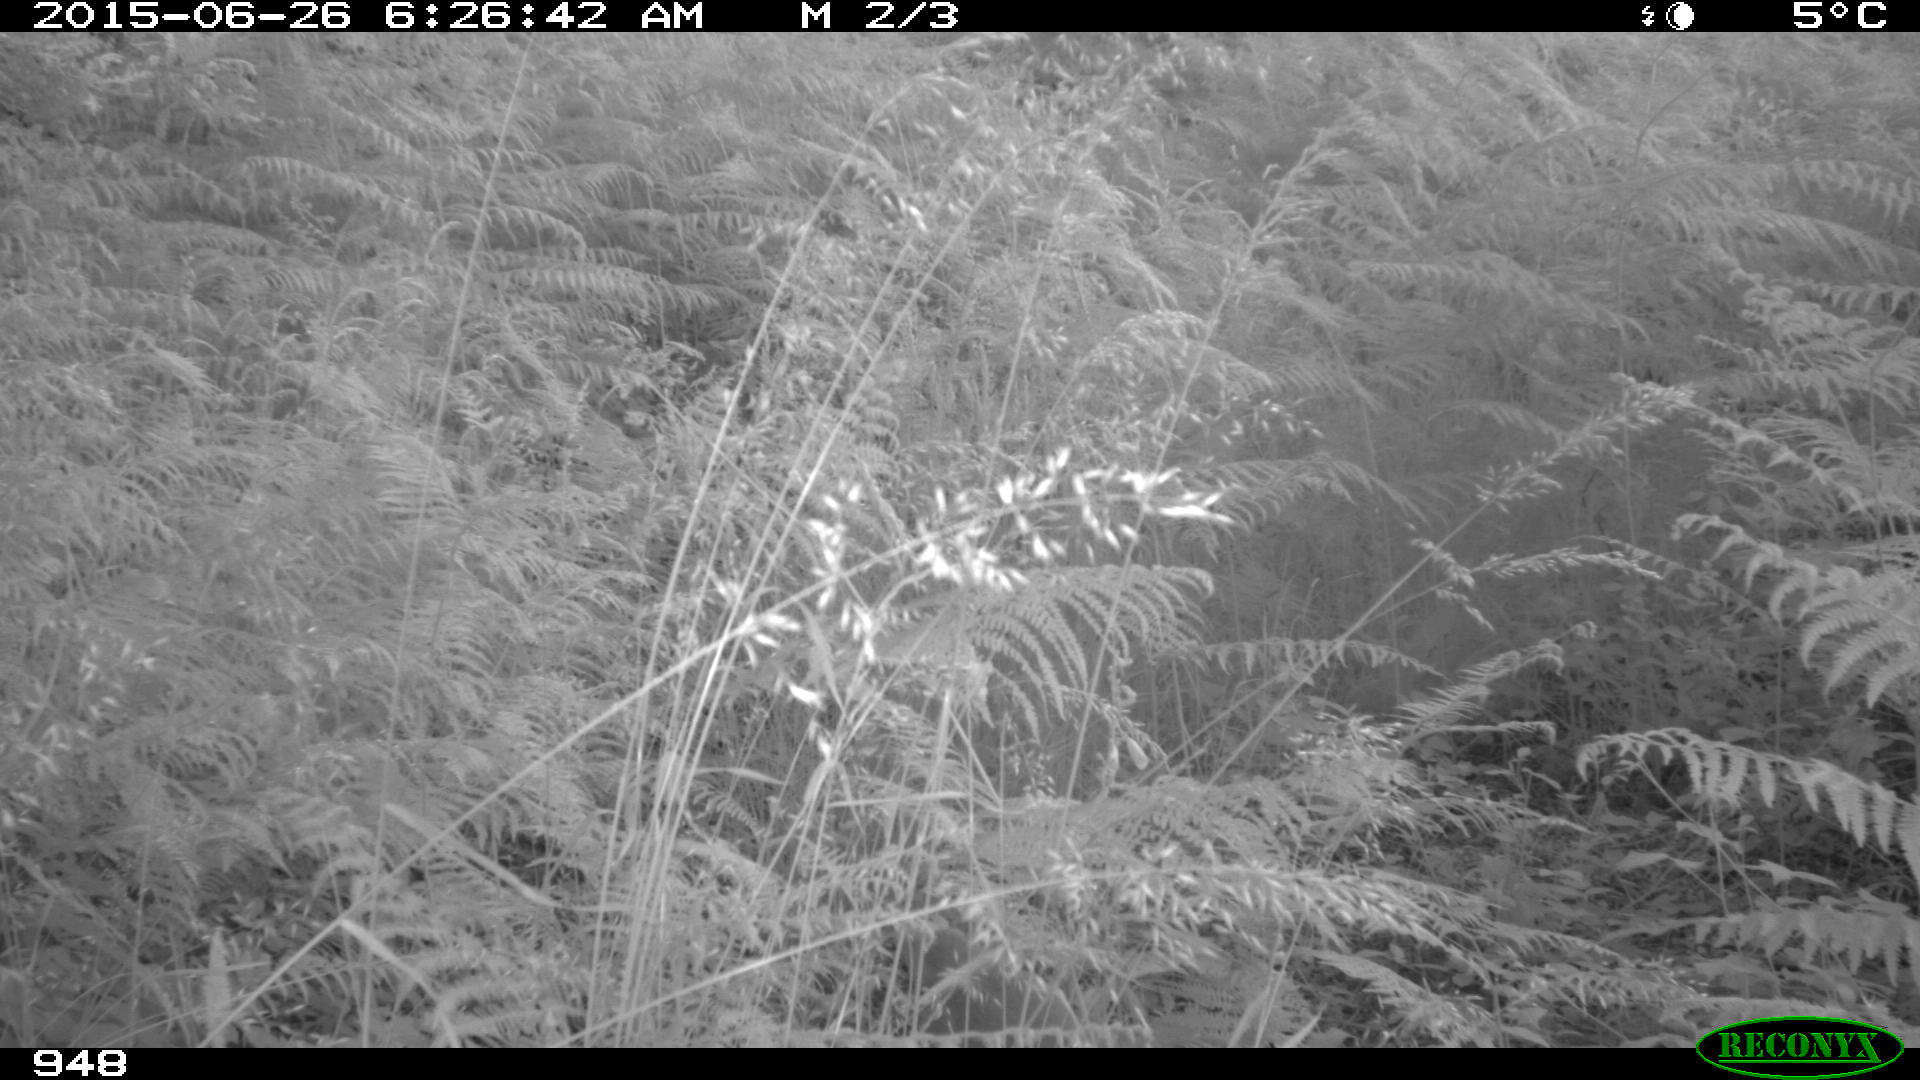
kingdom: Animalia
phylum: Chordata
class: Mammalia
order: Carnivora
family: Canidae
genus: Canis
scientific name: Canis lupus
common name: Gray wolf
